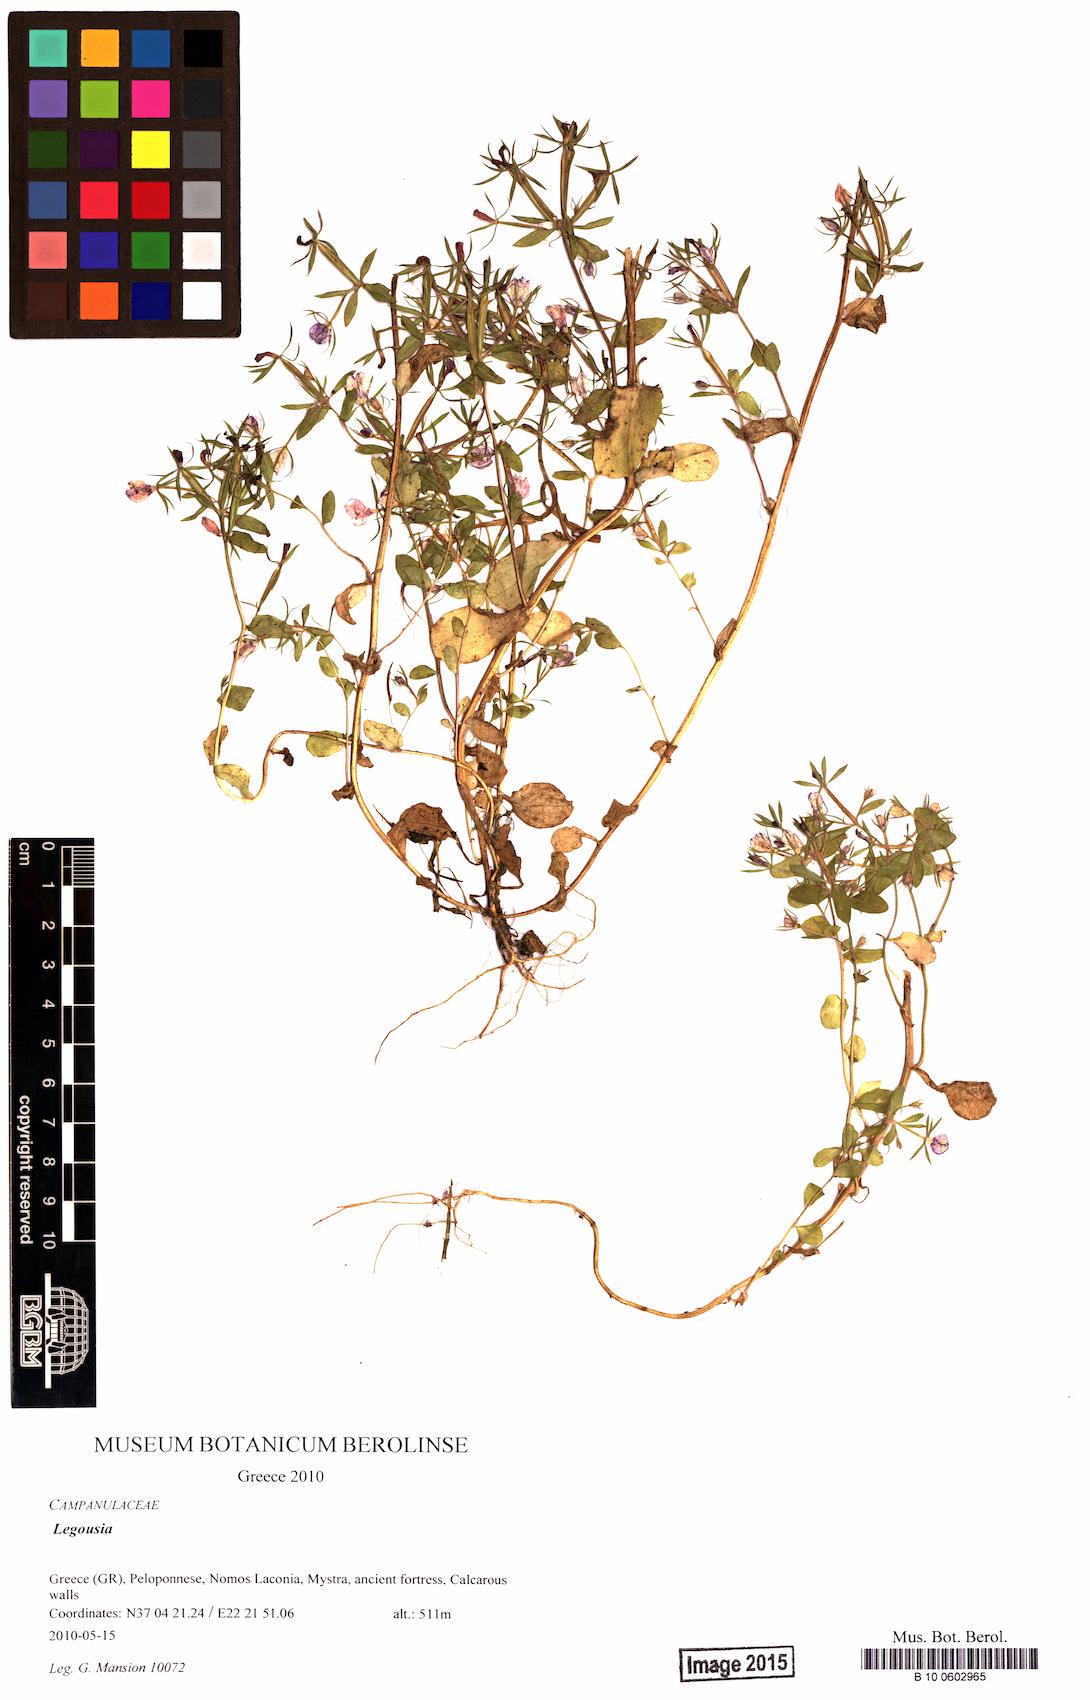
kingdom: Plantae
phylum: Tracheophyta
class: Magnoliopsida
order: Asterales
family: Campanulaceae
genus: Legousia
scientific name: Legousia
